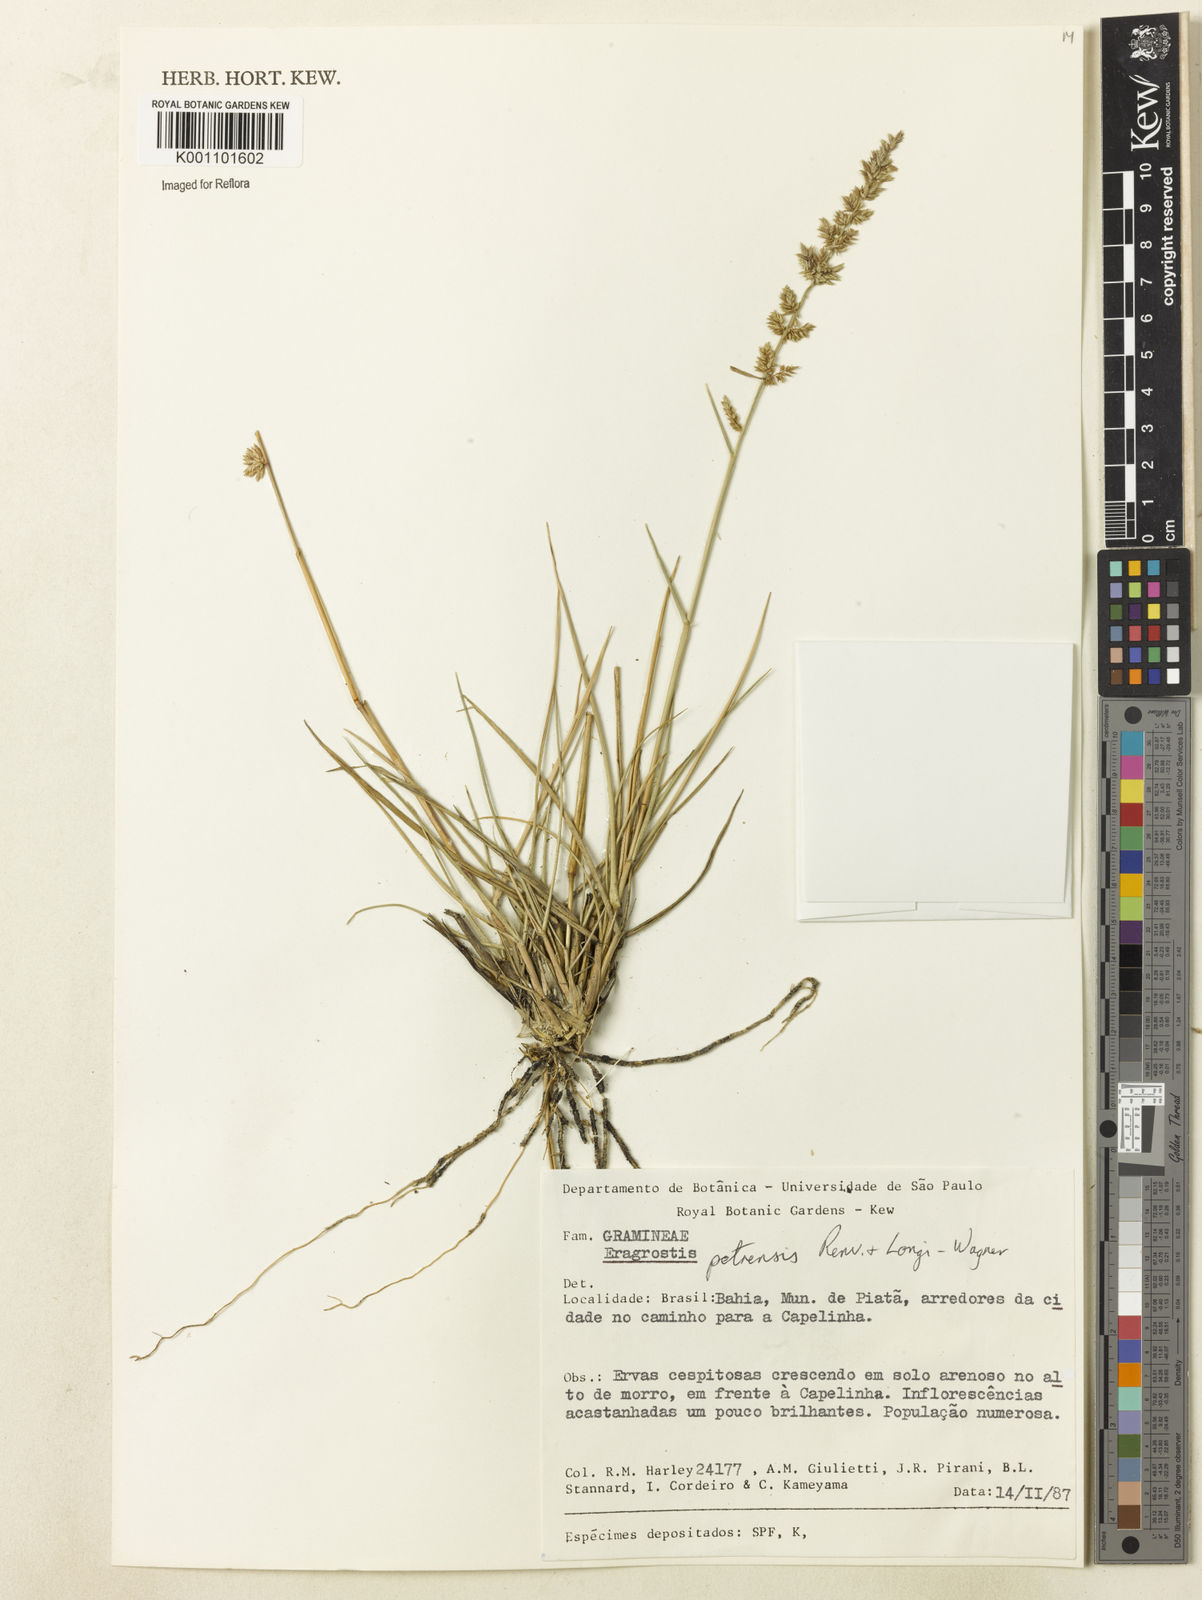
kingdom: Plantae
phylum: Tracheophyta
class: Liliopsida
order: Poales
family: Poaceae
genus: Eragrostis
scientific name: Eragrostis petrensis
